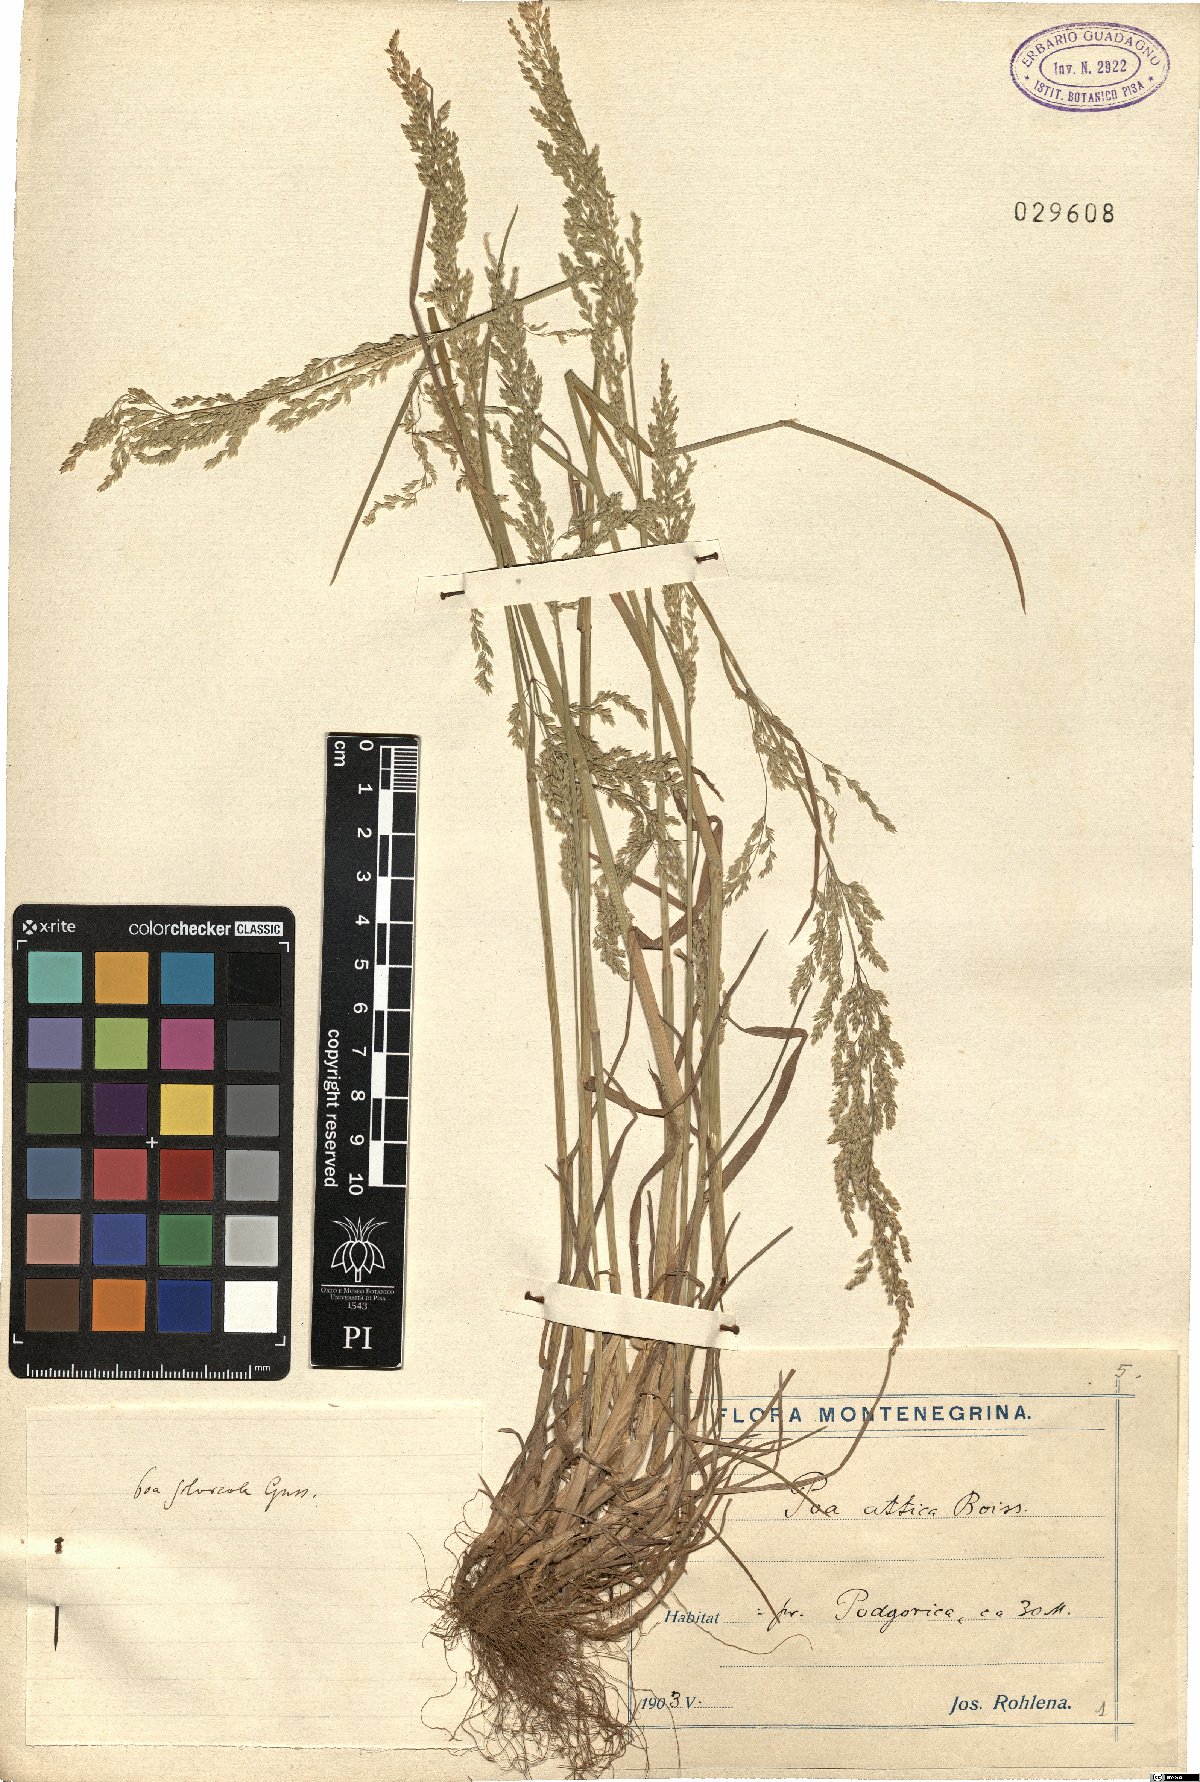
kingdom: Plantae
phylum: Tracheophyta
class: Liliopsida
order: Poales
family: Poaceae
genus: Poa
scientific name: Poa trivialis
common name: Rough bluegrass
